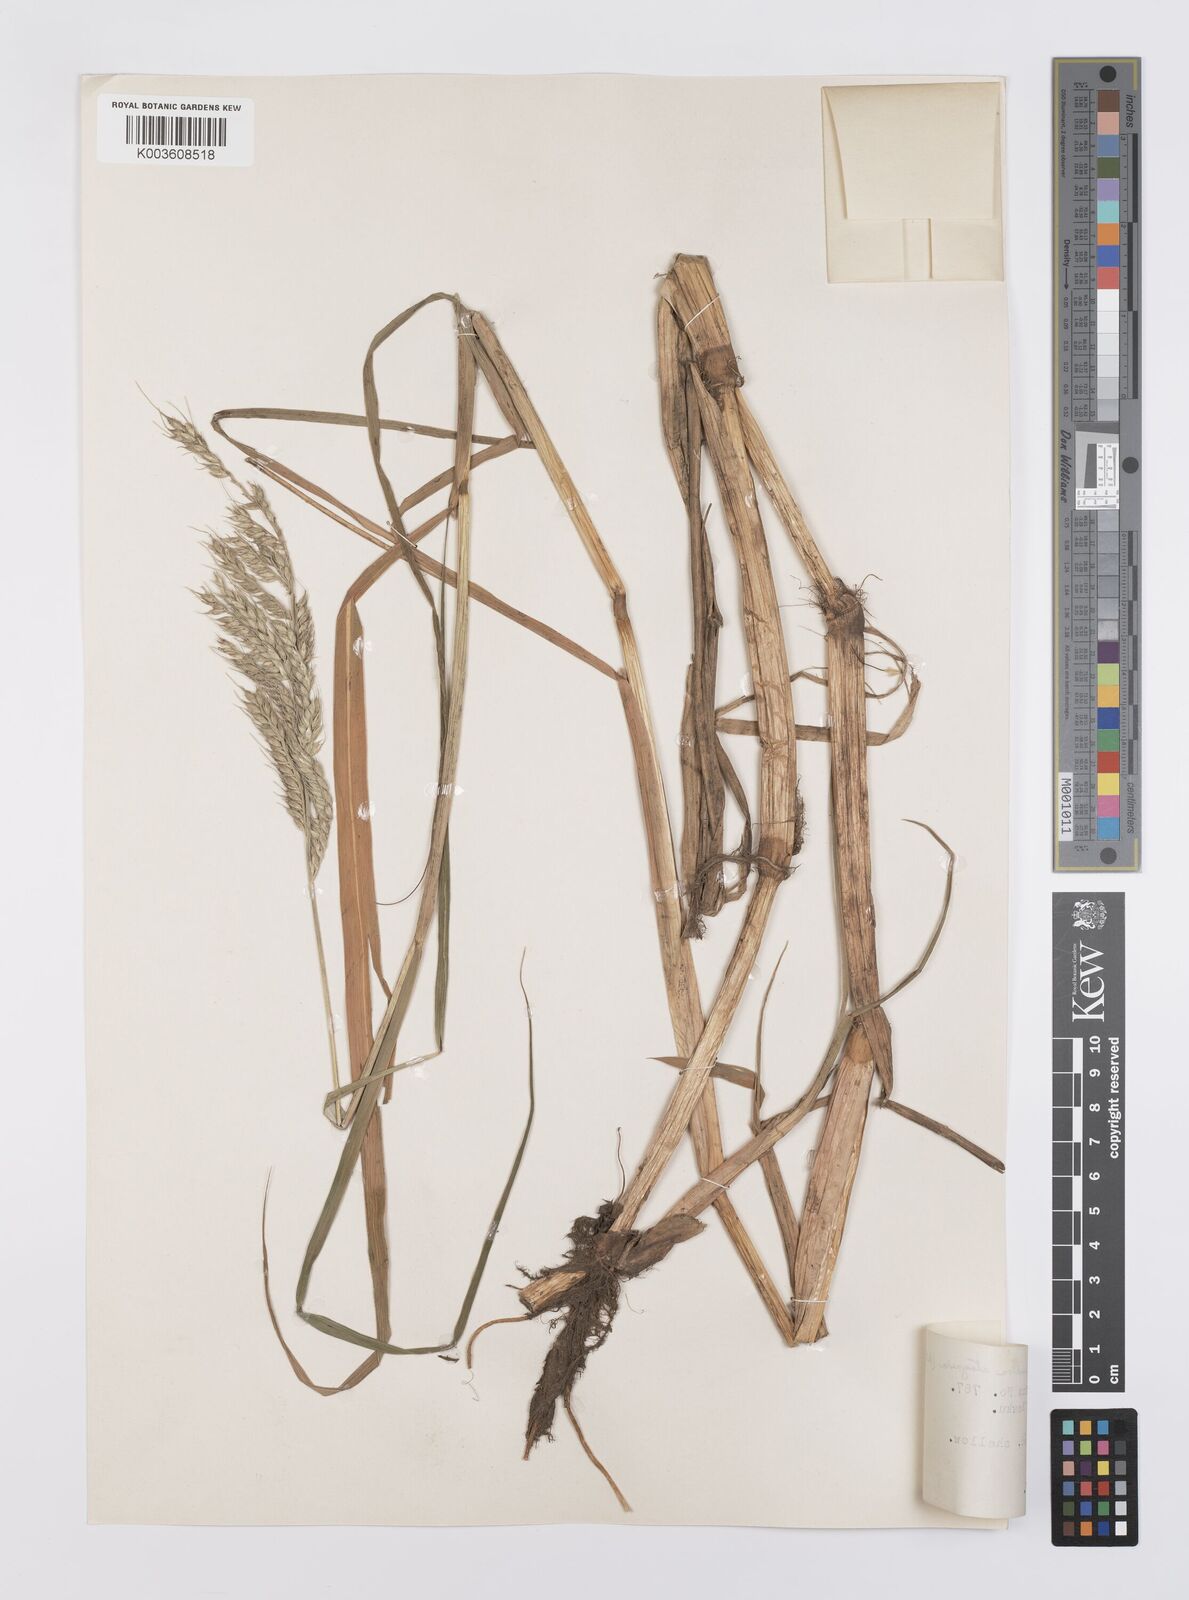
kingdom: Plantae
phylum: Tracheophyta
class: Liliopsida
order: Poales
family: Poaceae
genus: Echinochloa
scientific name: Echinochloa stagnina
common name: Burgu grass
